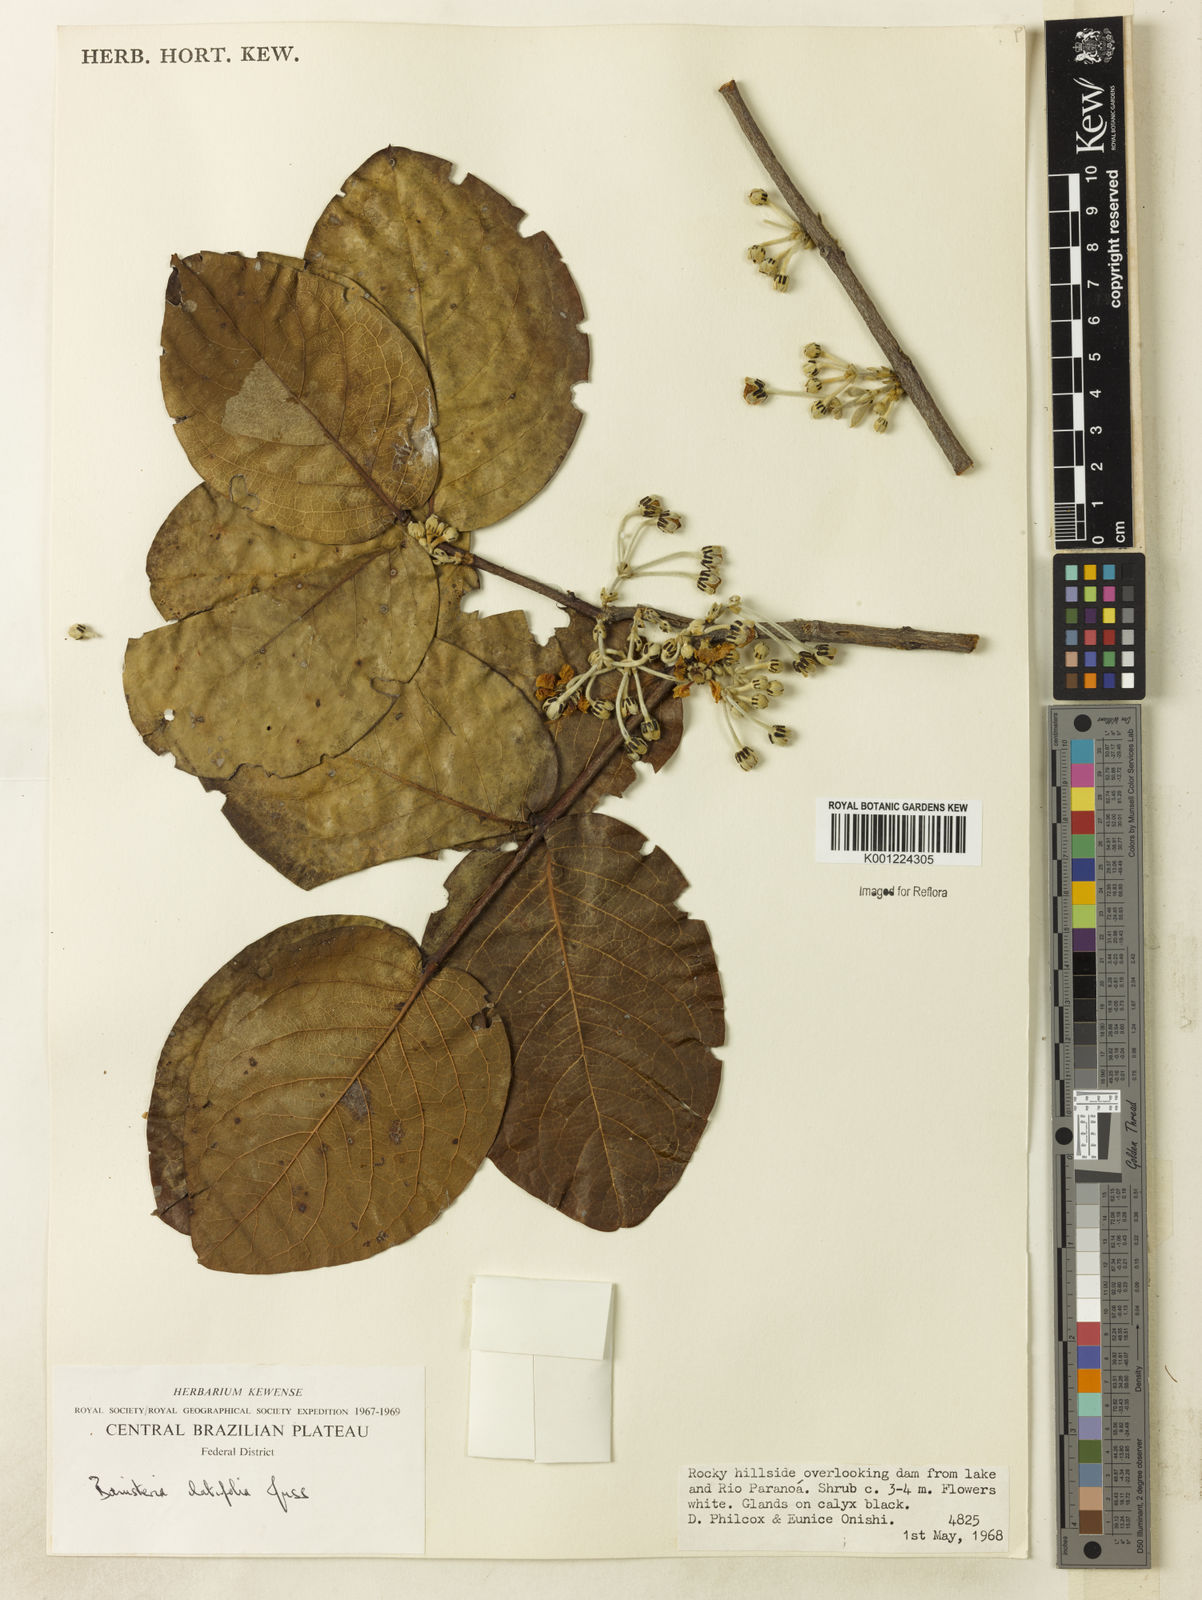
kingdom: Plantae
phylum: Tracheophyta
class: Magnoliopsida
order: Malpighiales
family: Malpighiaceae
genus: Banisteriopsis
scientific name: Banisteriopsis latifolia
